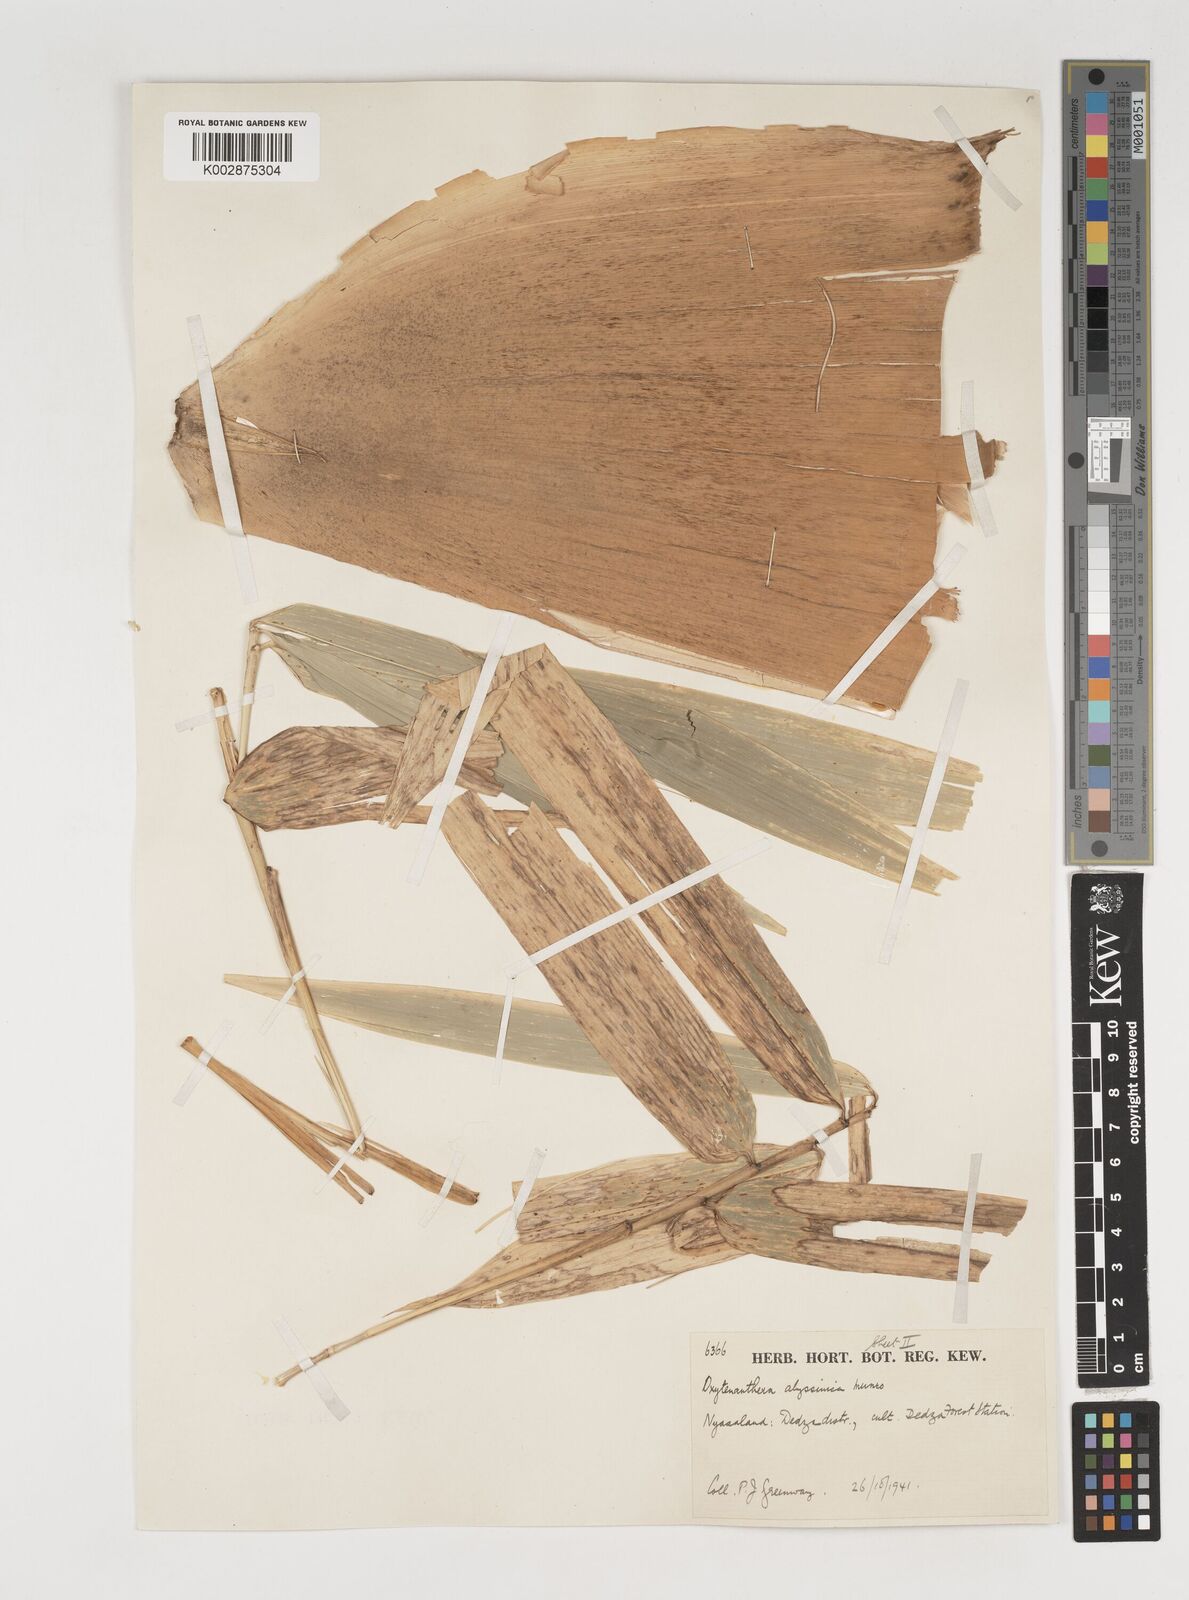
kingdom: Plantae
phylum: Tracheophyta
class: Liliopsida
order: Poales
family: Poaceae
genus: Oxytenanthera
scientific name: Oxytenanthera abyssinica
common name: Wine bamboo
